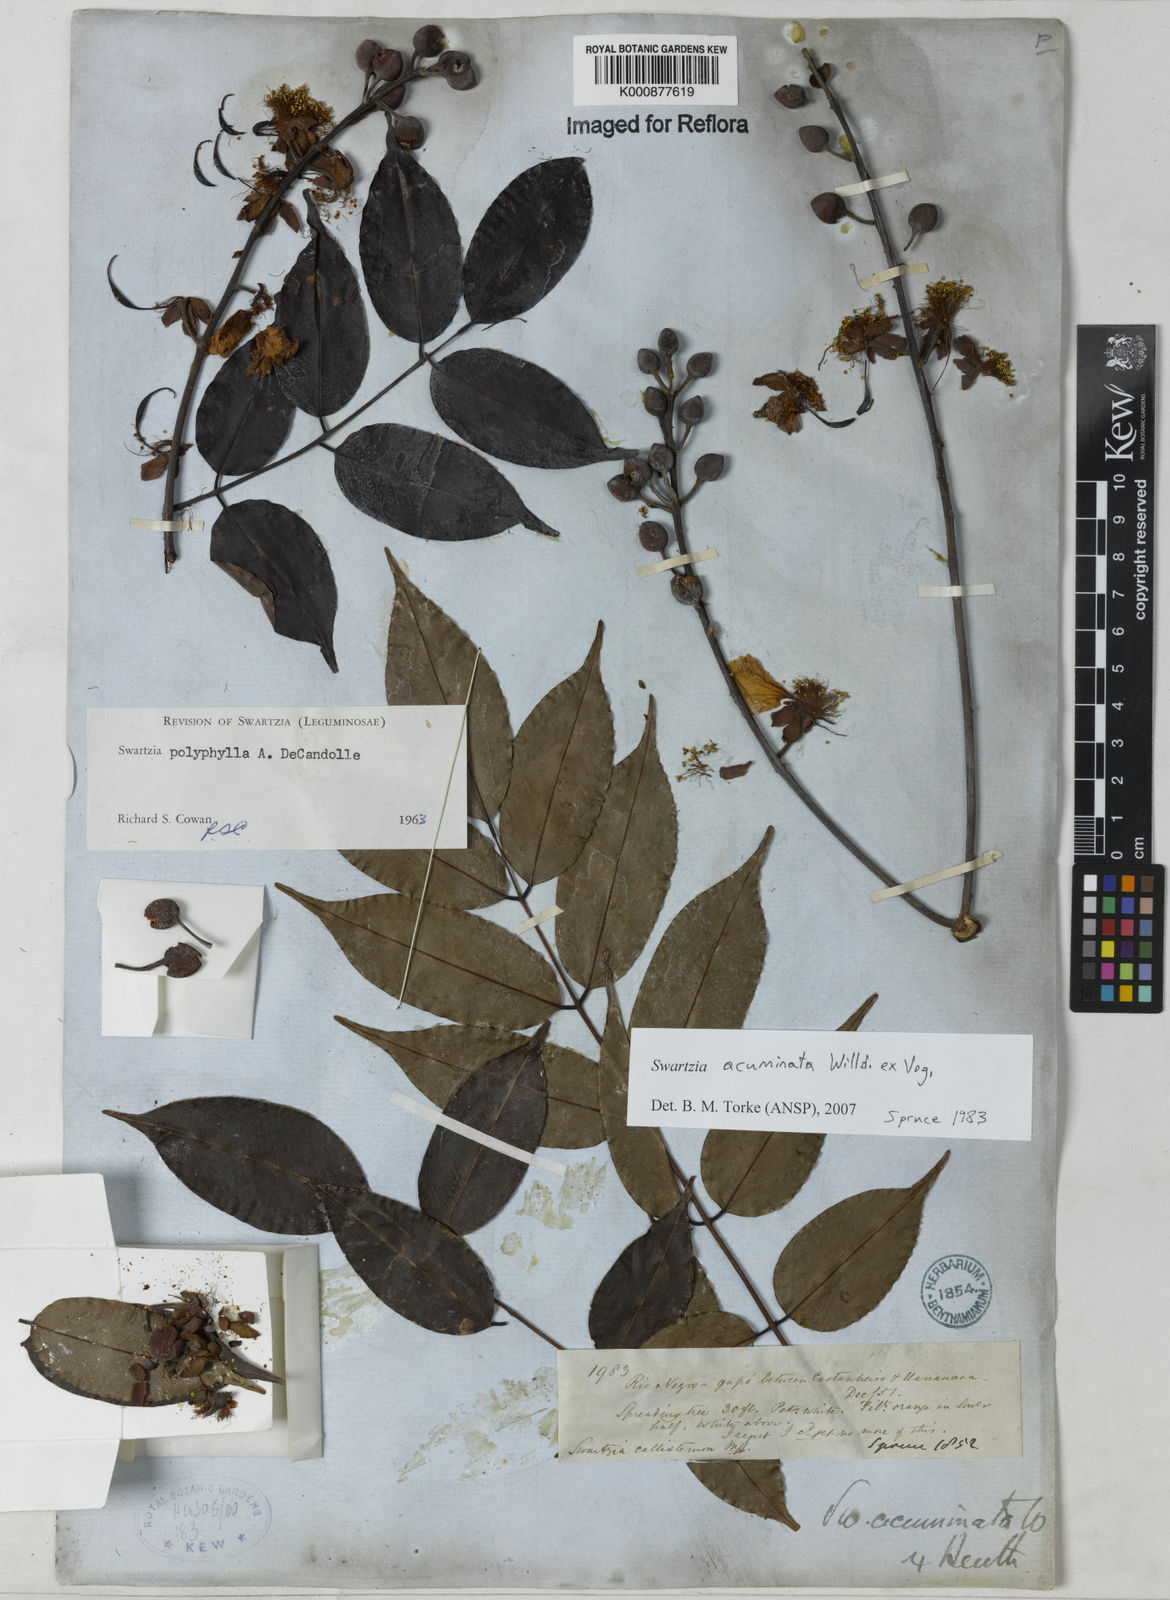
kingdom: Plantae
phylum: Tracheophyta
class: Magnoliopsida
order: Fabales
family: Fabaceae
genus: Swartzia
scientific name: Swartzia acuminata
